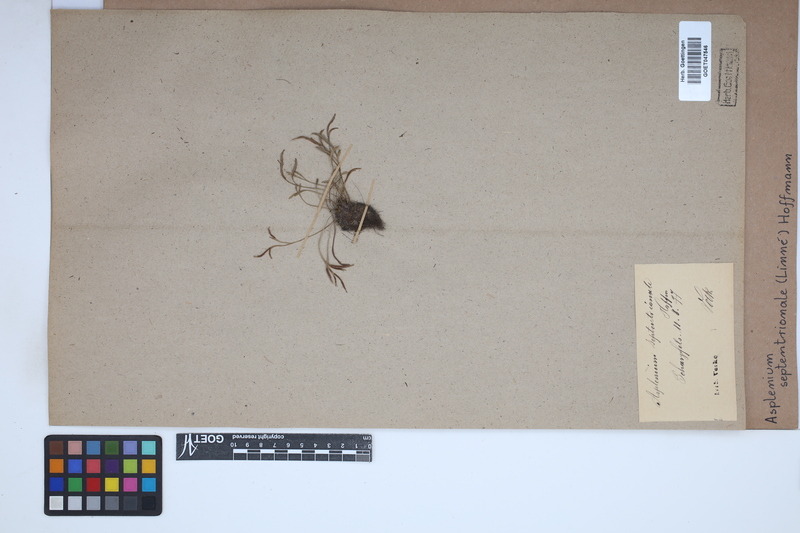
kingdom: Plantae
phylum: Tracheophyta
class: Polypodiopsida
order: Polypodiales
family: Aspleniaceae
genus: Asplenium
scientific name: Asplenium septentrionale
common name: Forked spleenwort
